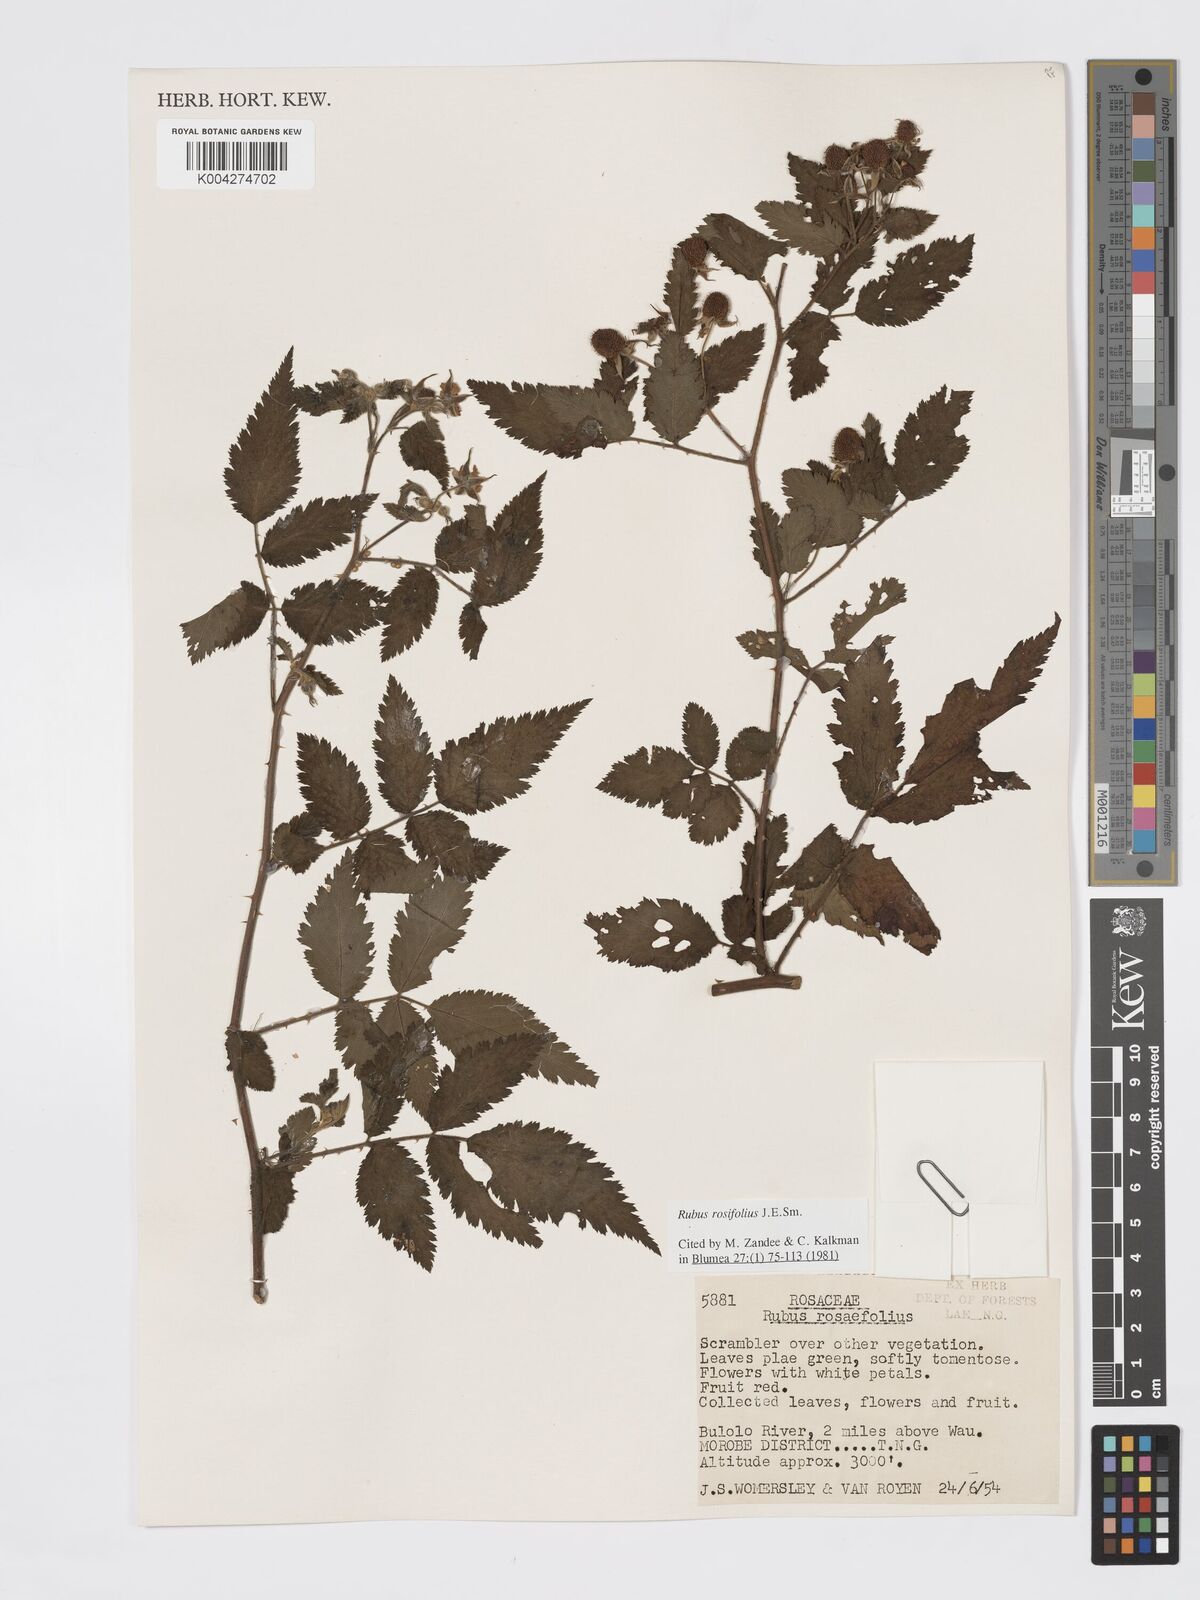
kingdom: Plantae
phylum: Tracheophyta
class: Magnoliopsida
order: Rosales
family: Rosaceae
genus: Rubus
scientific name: Rubus
